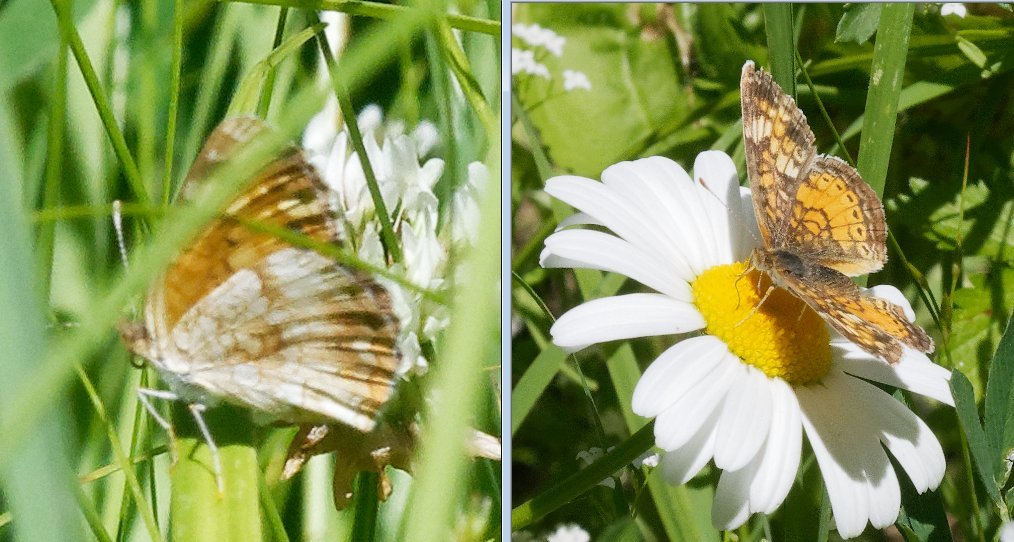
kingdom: Animalia
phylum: Arthropoda
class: Insecta
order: Lepidoptera
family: Nymphalidae
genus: Phyciodes
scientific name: Phyciodes
